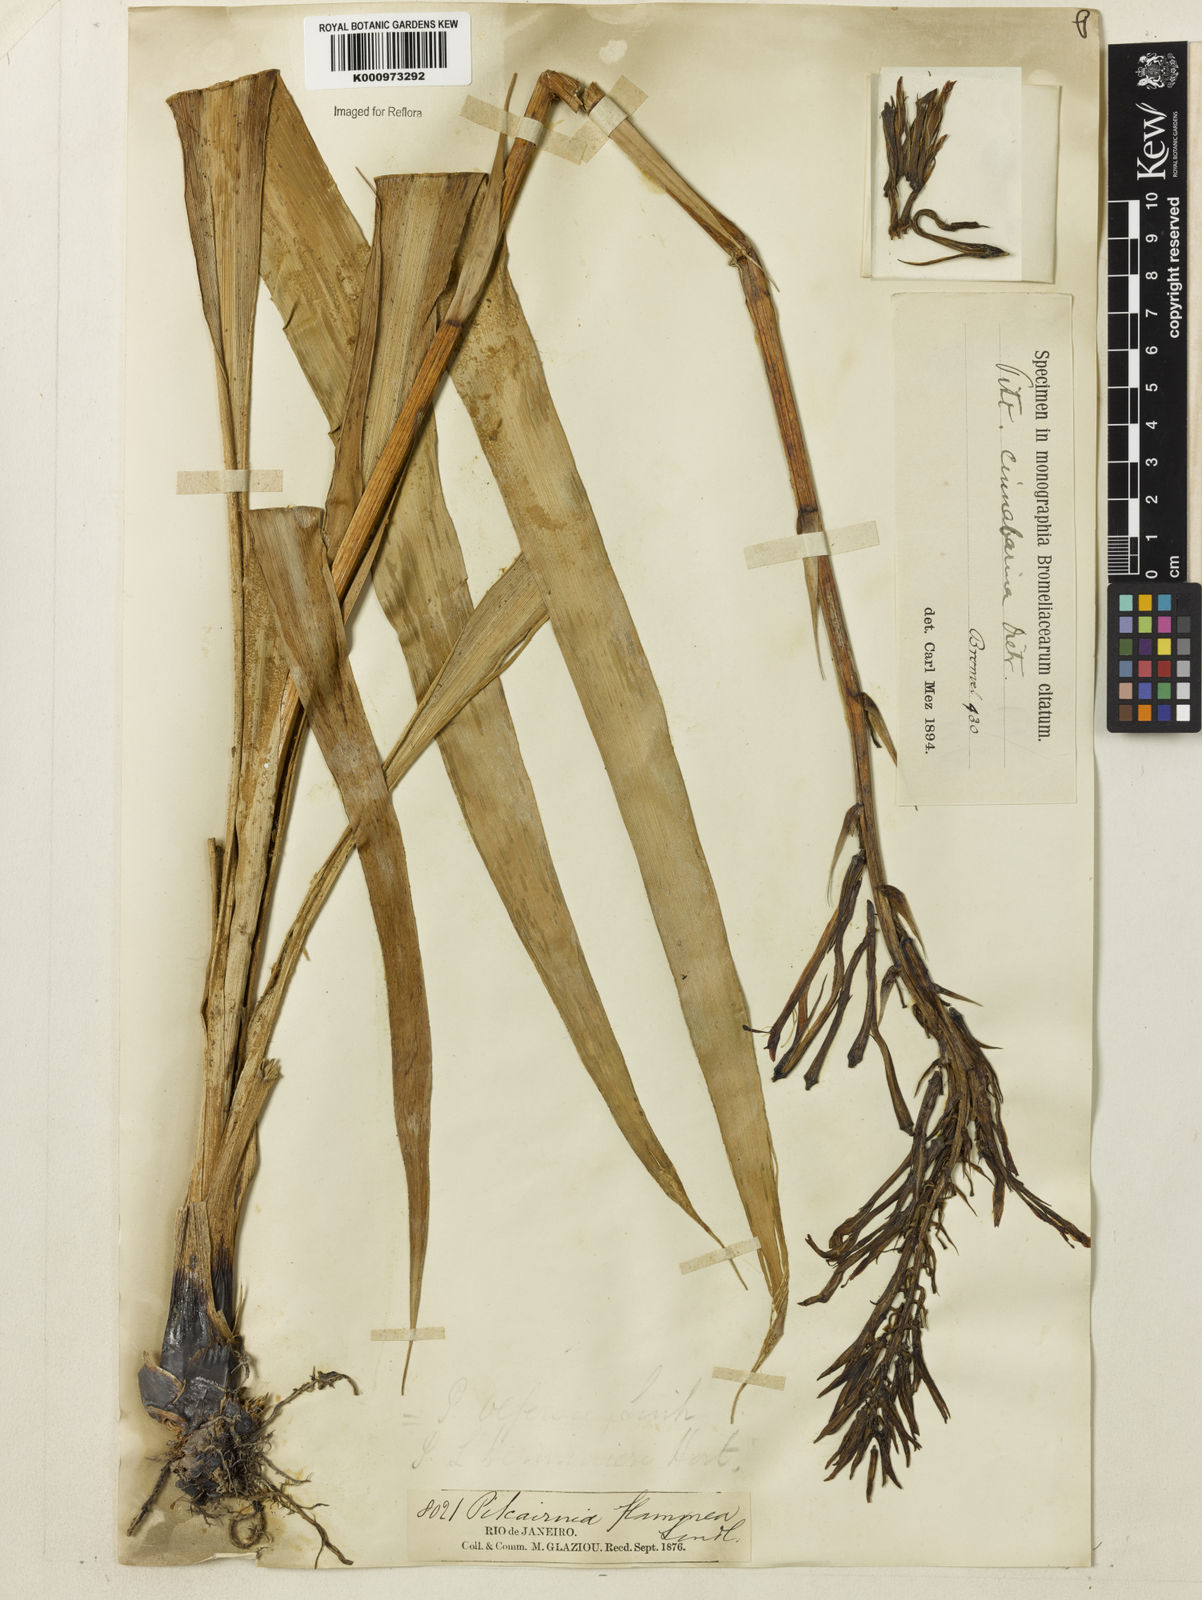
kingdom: Plantae
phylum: Tracheophyta
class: Liliopsida
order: Poales
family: Bromeliaceae
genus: Pitcairnia
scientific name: Pitcairnia flammea
